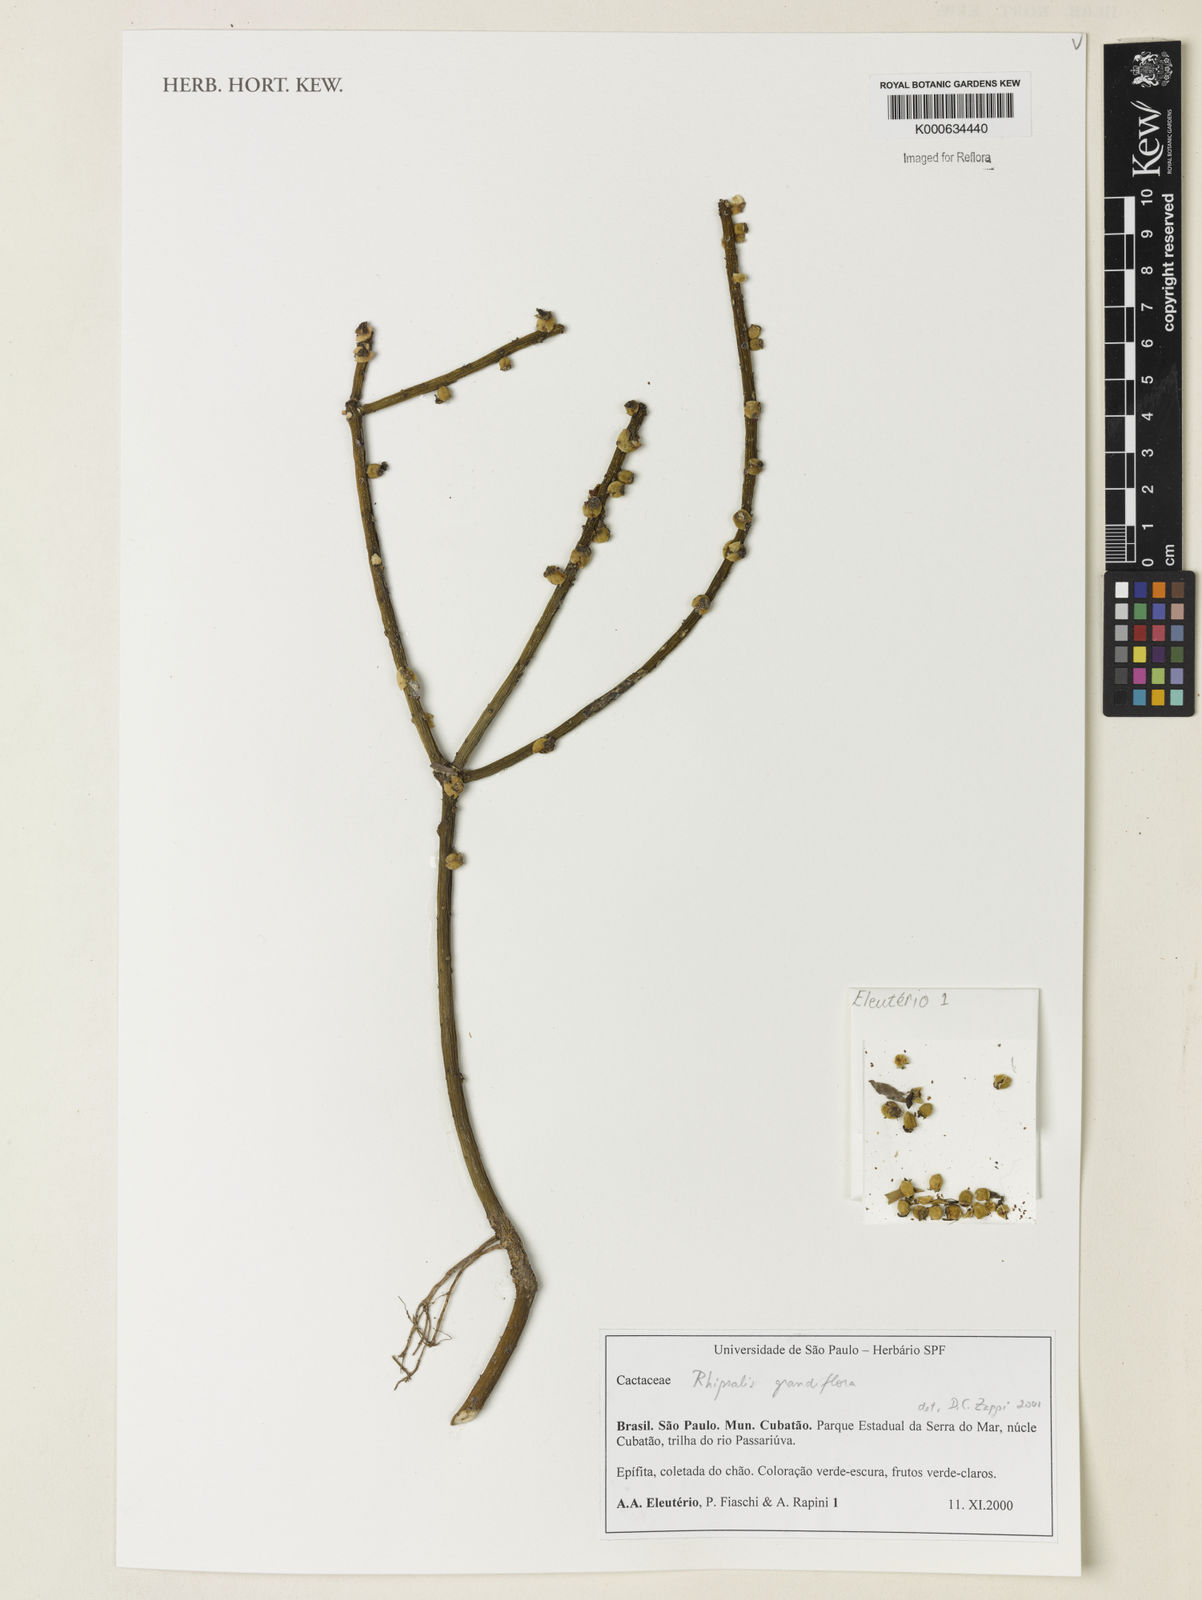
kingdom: Plantae
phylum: Tracheophyta
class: Magnoliopsida
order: Caryophyllales
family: Cactaceae
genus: Rhipsalis
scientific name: Rhipsalis grandiflora
